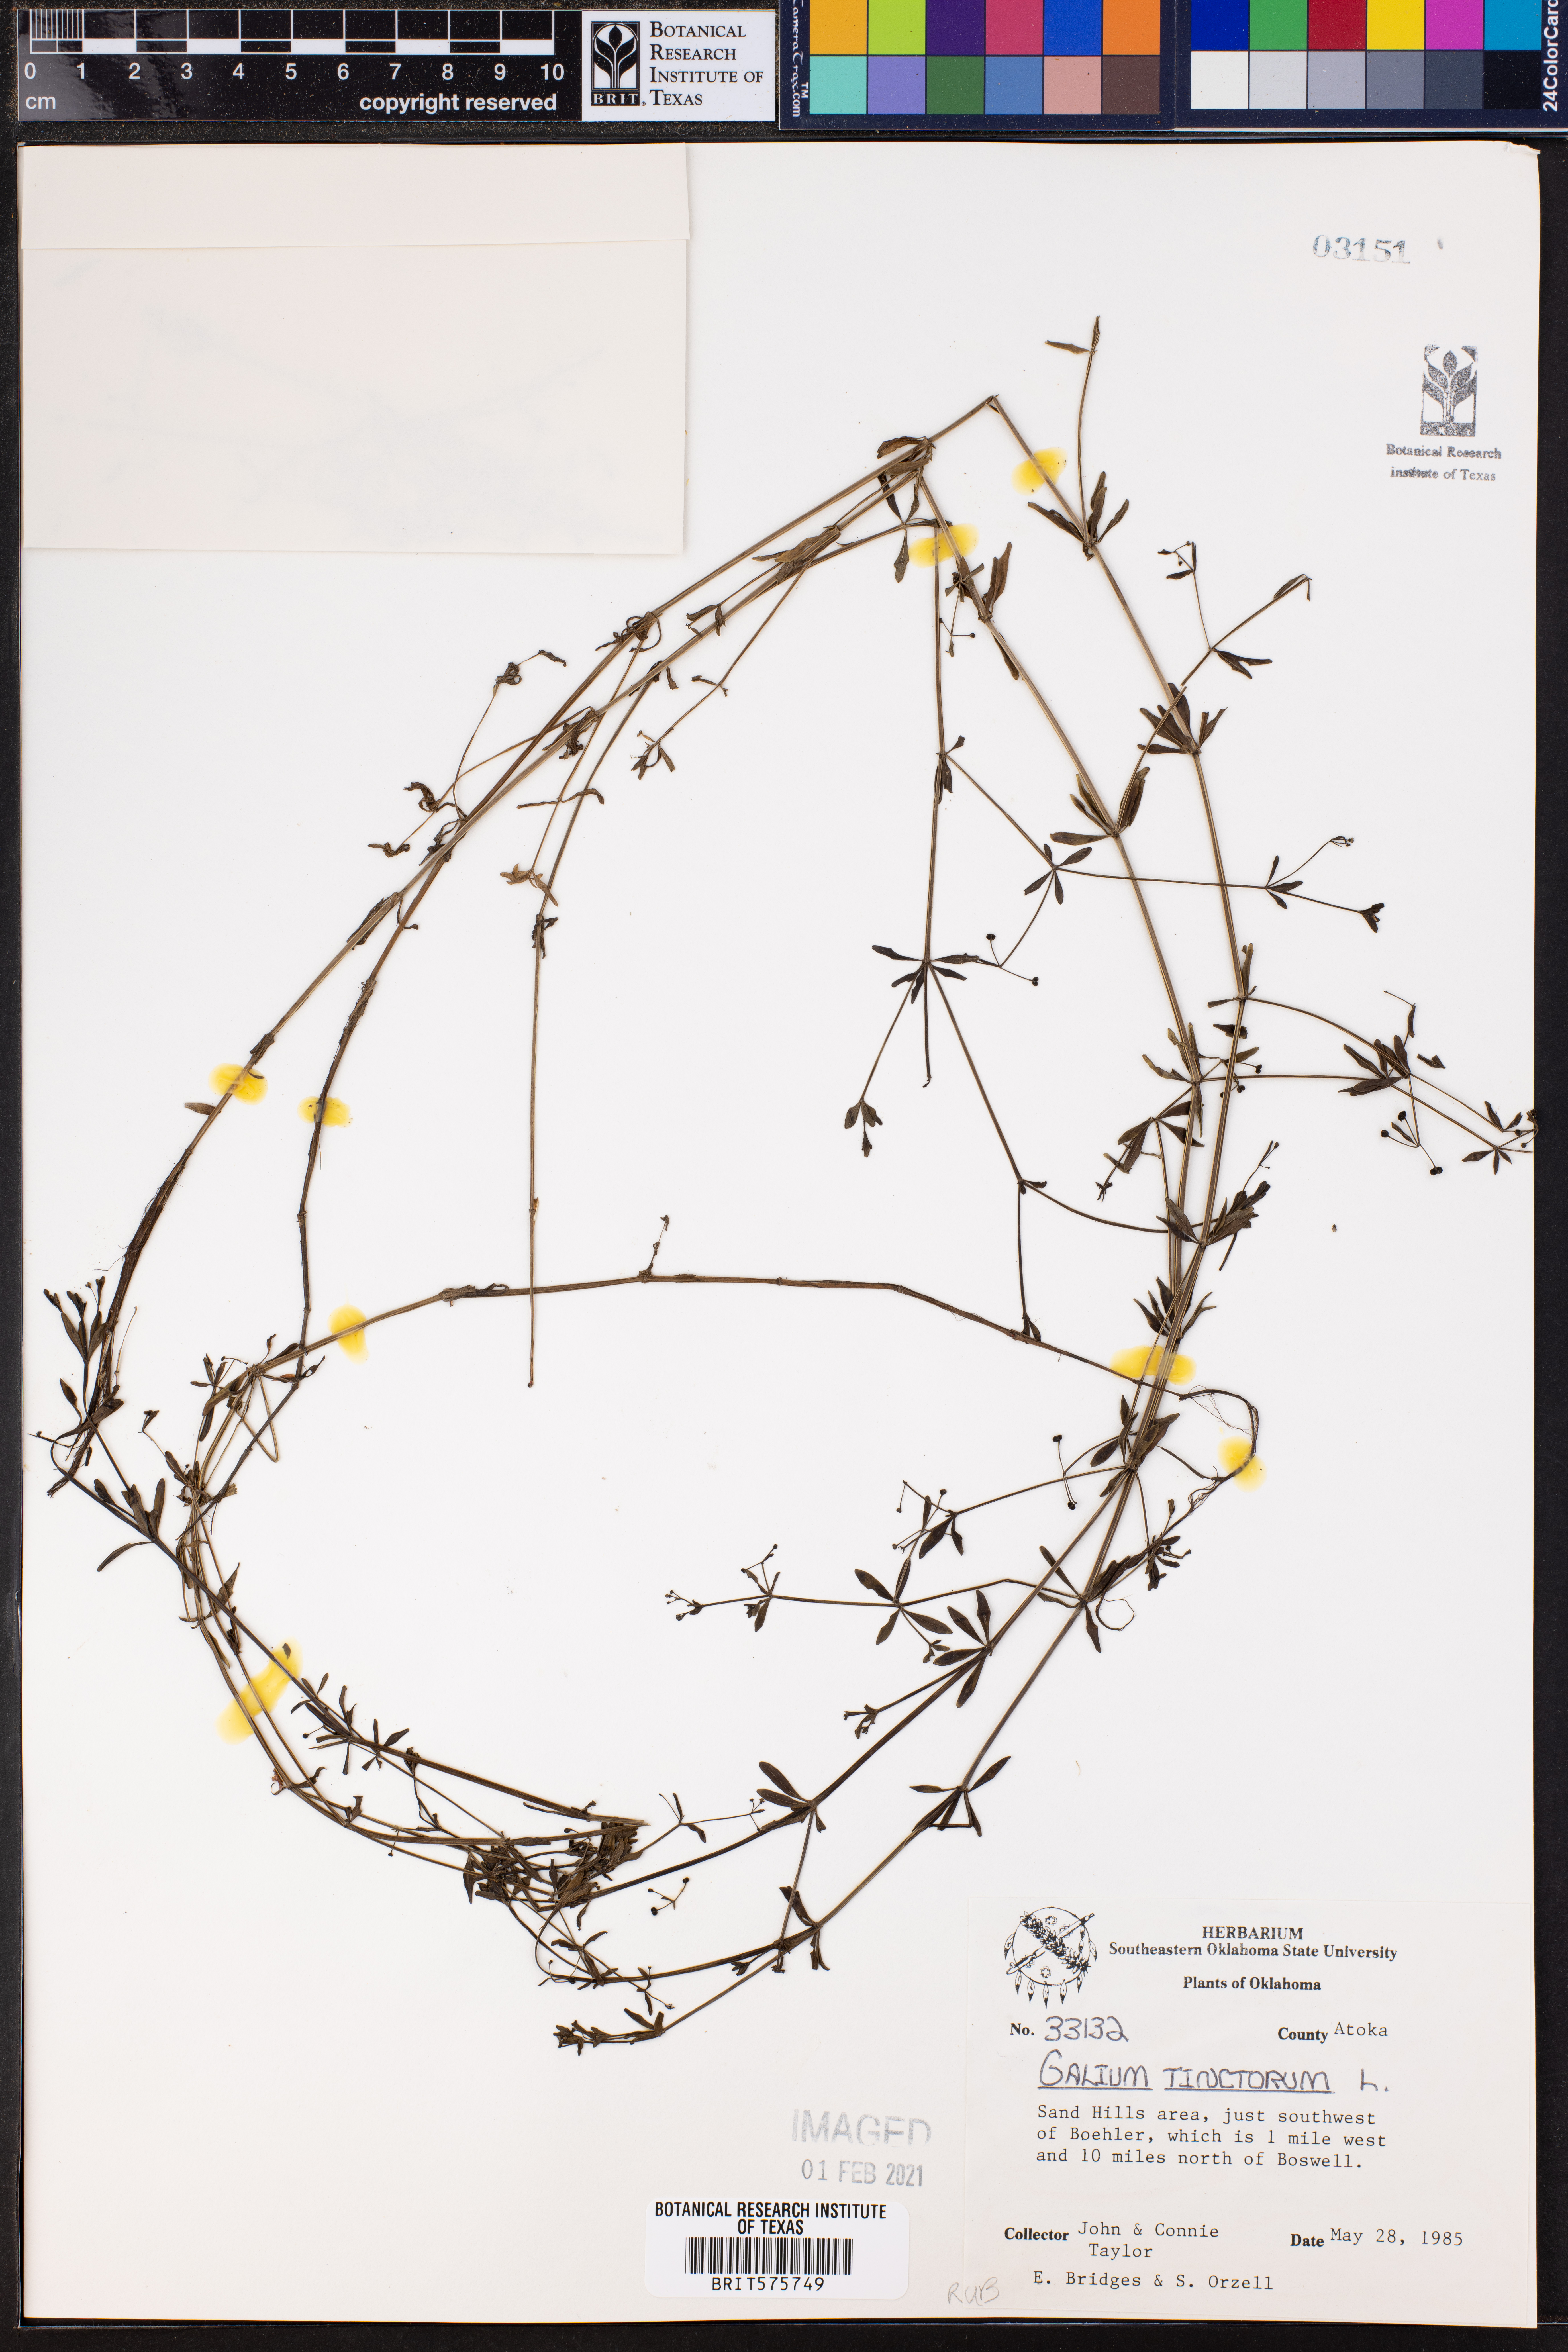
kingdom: Plantae
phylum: Tracheophyta
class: Magnoliopsida
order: Gentianales
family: Rubiaceae
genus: Asperula
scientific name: Asperula tinctoria
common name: Dyer's woodruff
